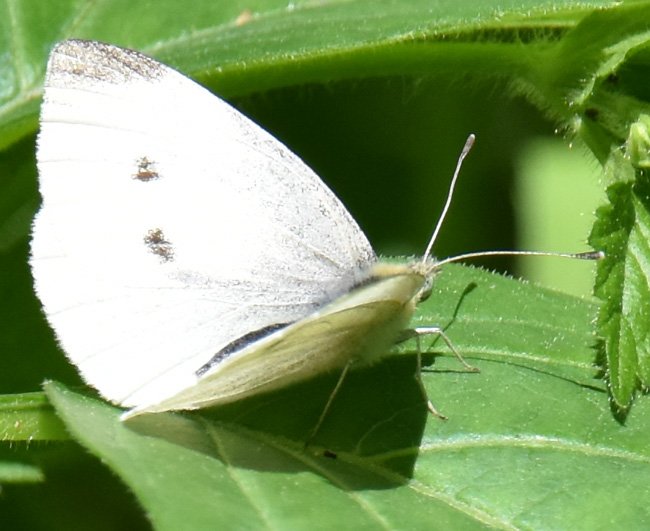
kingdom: Animalia
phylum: Arthropoda
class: Insecta
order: Lepidoptera
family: Pieridae
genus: Pieris
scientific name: Pieris rapae
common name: Cabbage White
